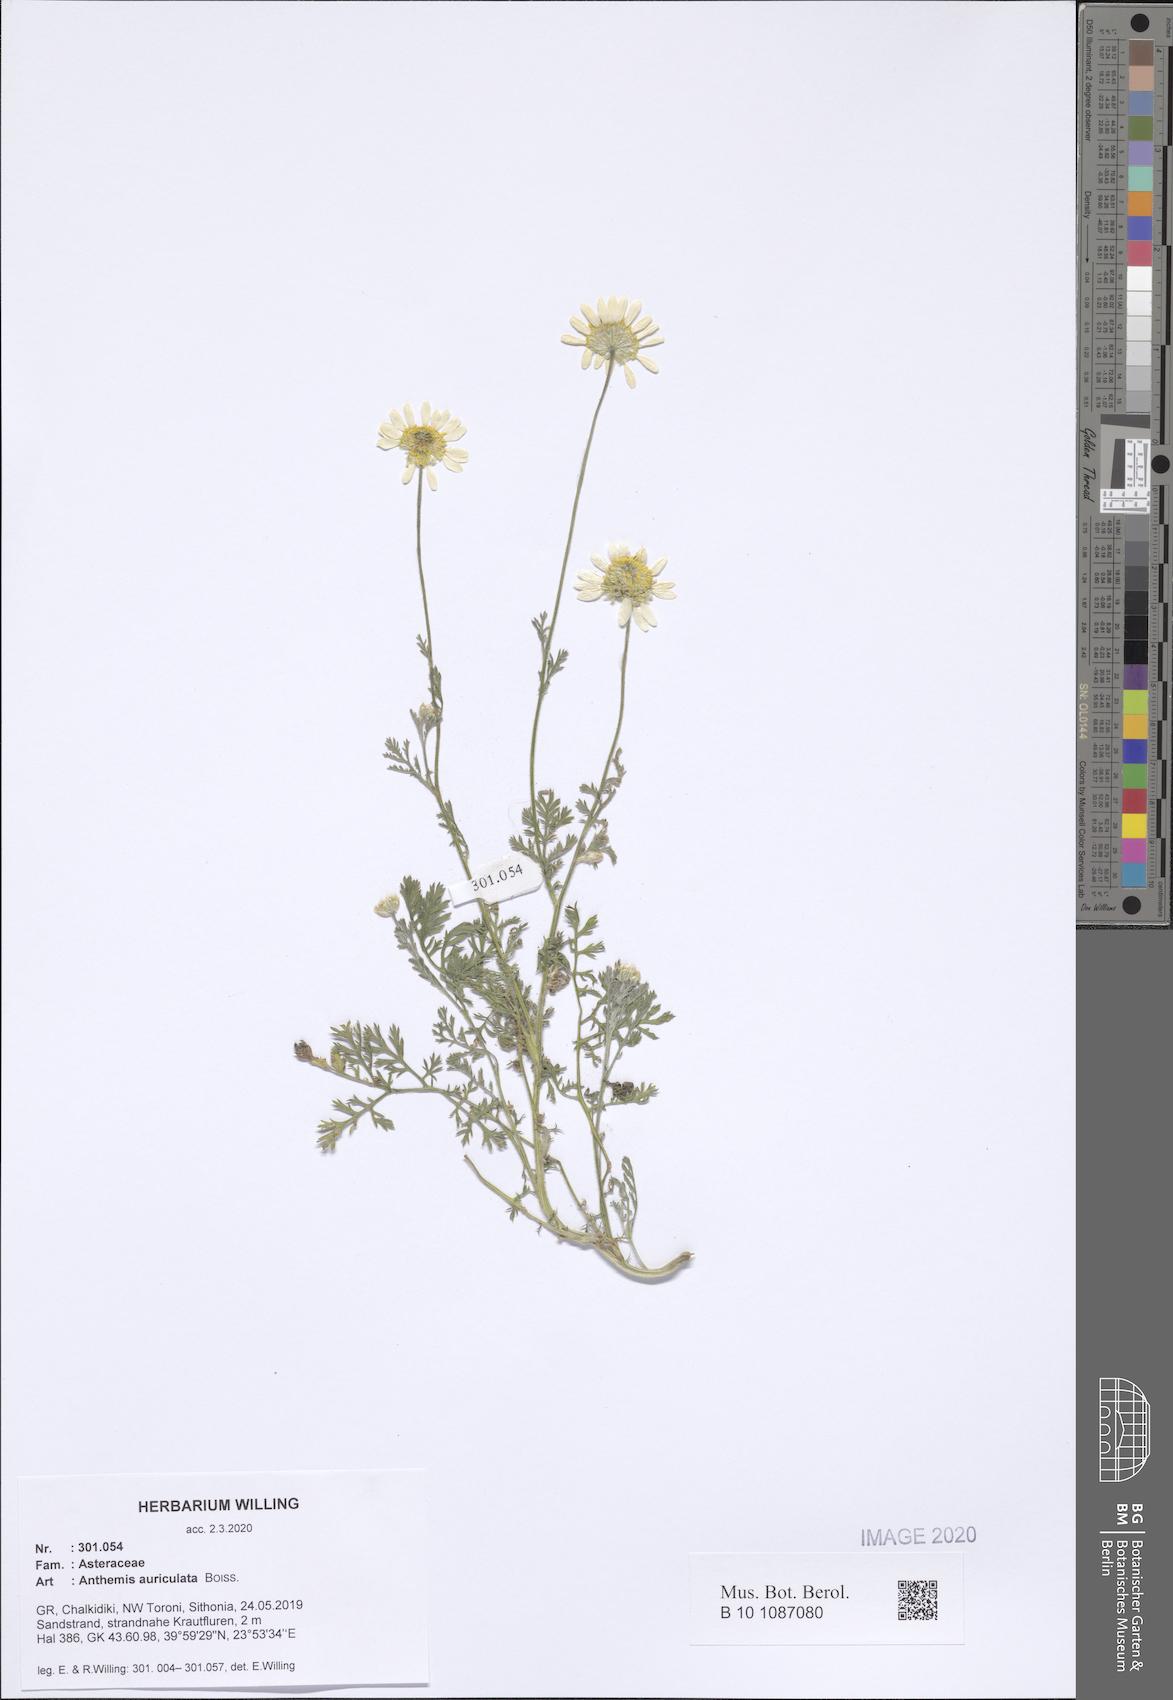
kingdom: Plantae
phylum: Tracheophyta
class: Magnoliopsida
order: Asterales
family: Asteraceae
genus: Anthemis
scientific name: Anthemis auriculata
